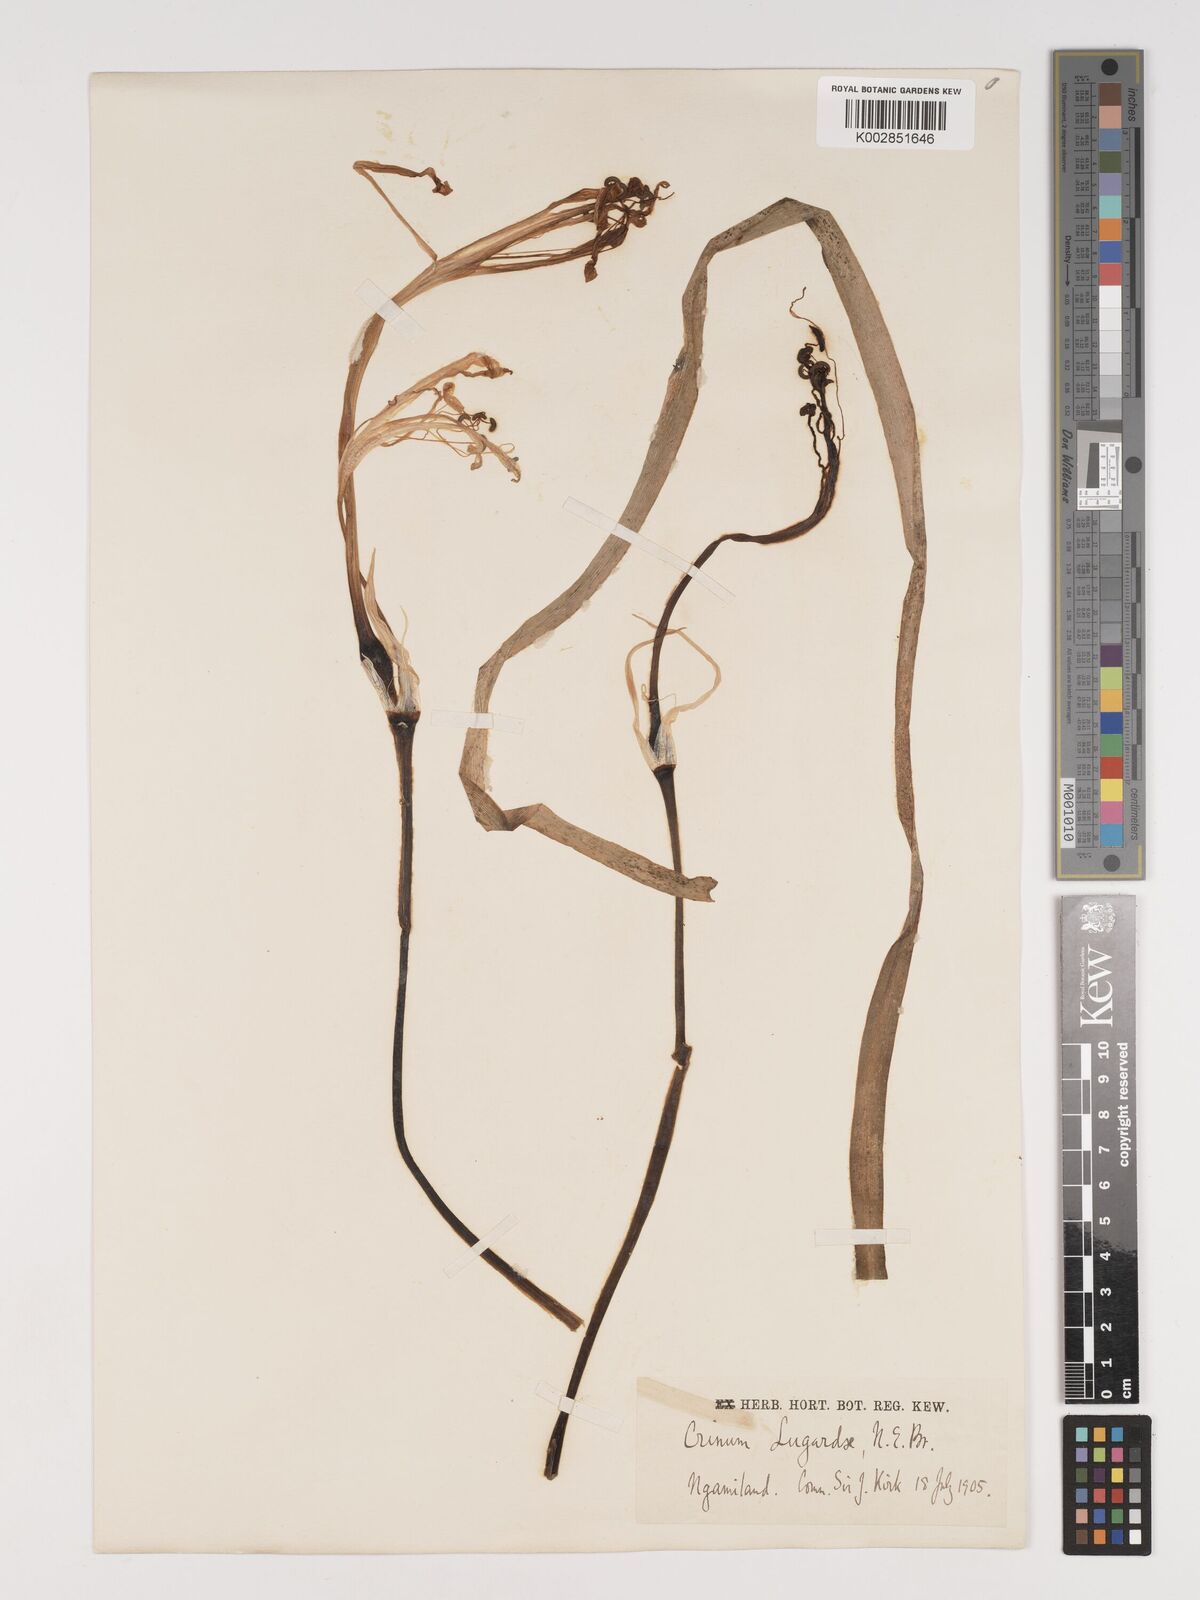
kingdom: Plantae
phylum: Tracheophyta
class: Liliopsida
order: Asparagales
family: Amaryllidaceae
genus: Crinum
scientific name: Crinum lugardiae
